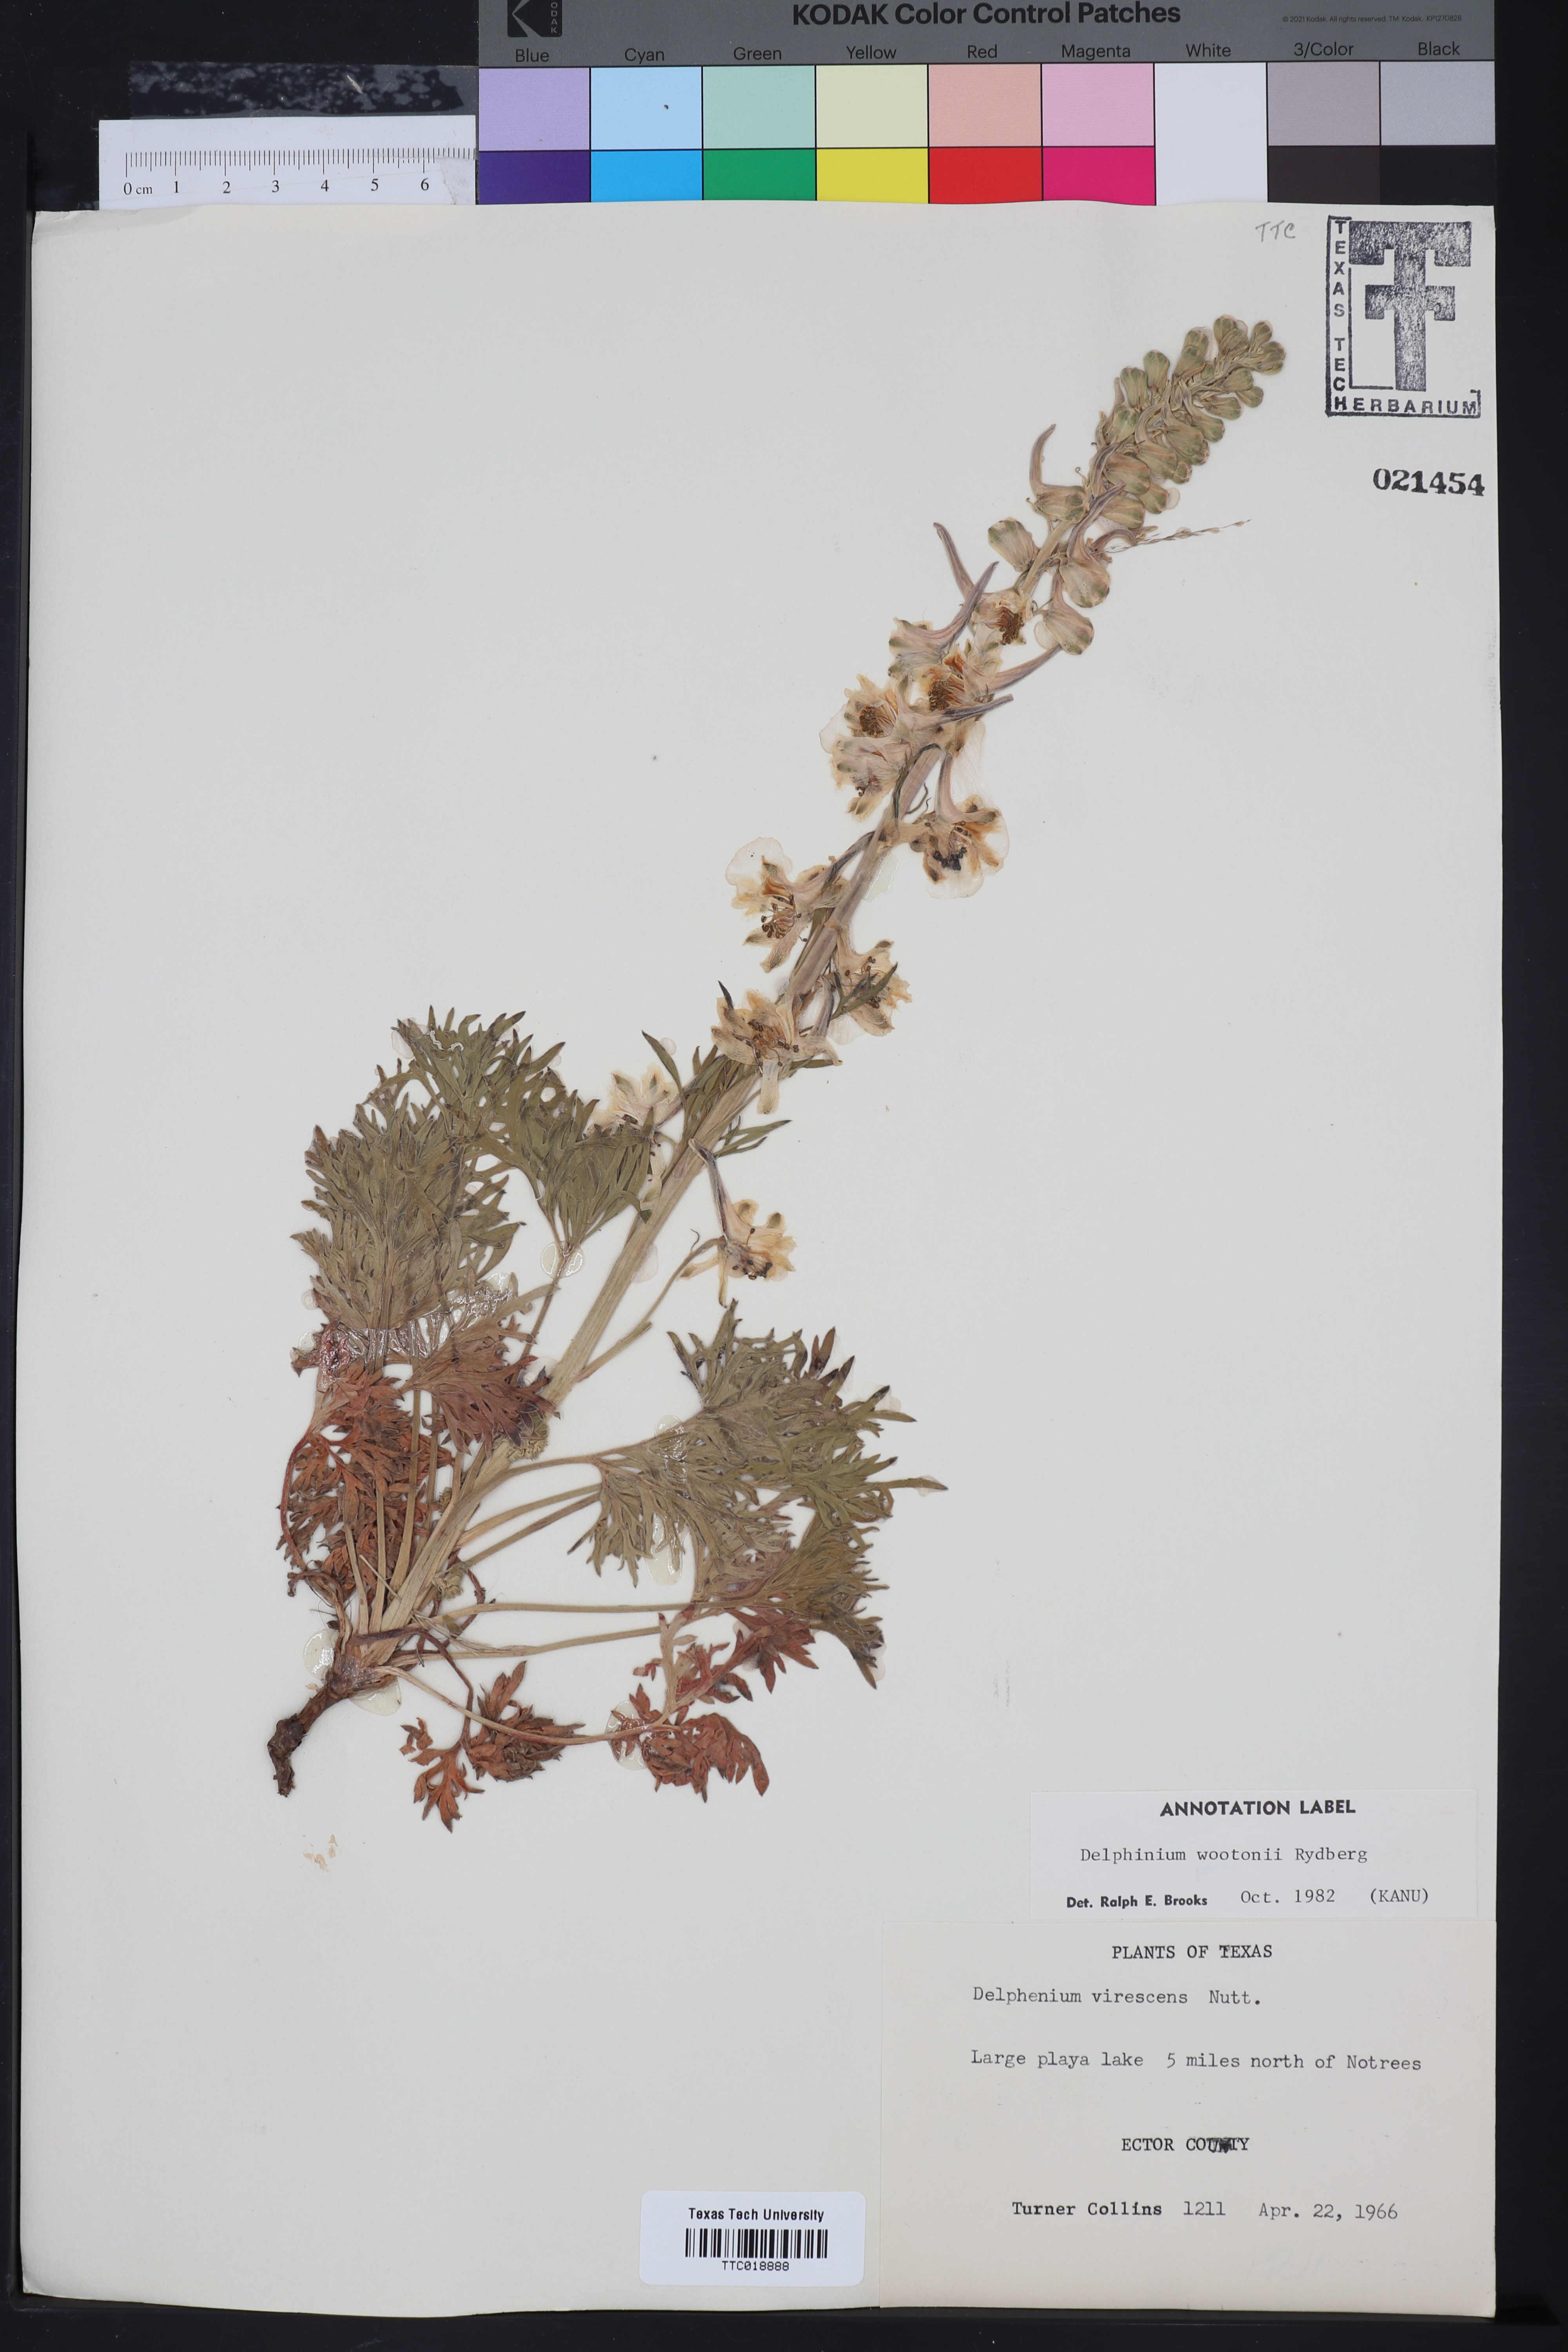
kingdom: Plantae
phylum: Tracheophyta
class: Magnoliopsida
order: Ranunculales
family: Ranunculaceae
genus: Delphinium
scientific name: Delphinium wootonii
